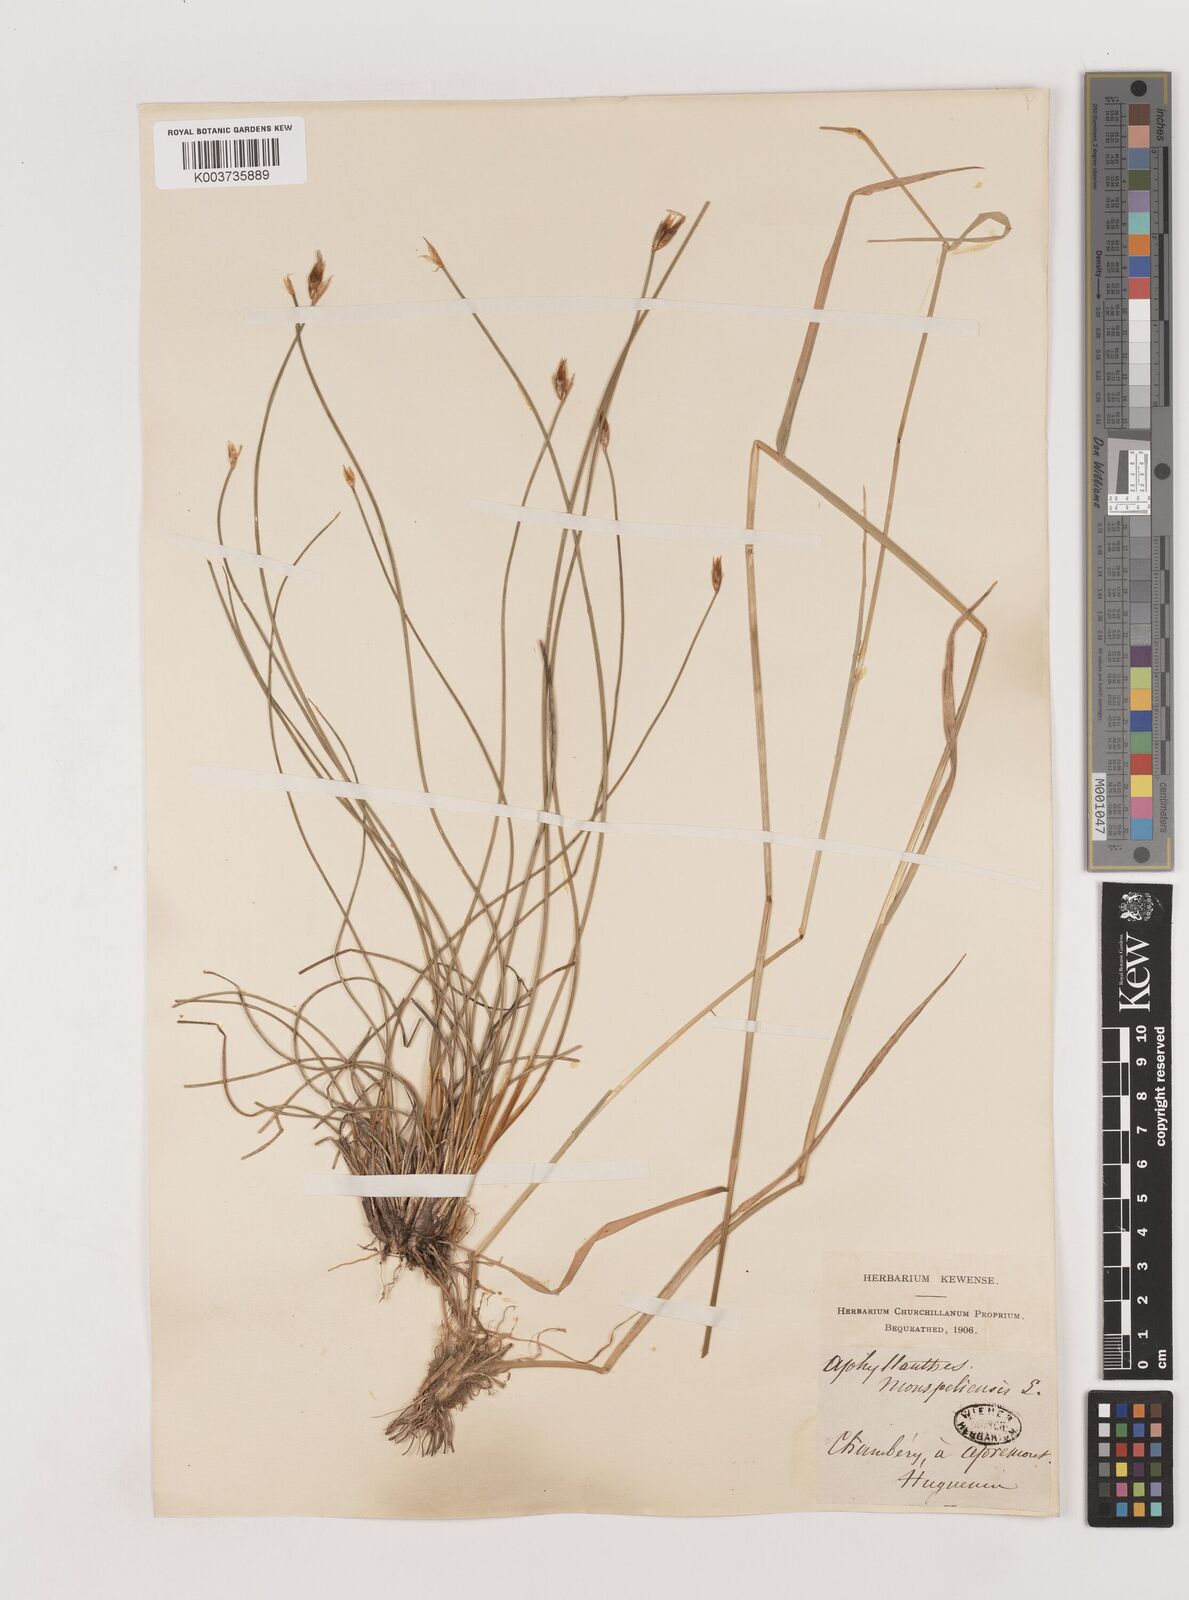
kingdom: Plantae
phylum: Tracheophyta
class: Liliopsida
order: Asparagales
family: Asparagaceae
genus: Aphyllanthes
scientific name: Aphyllanthes monspeliensis
